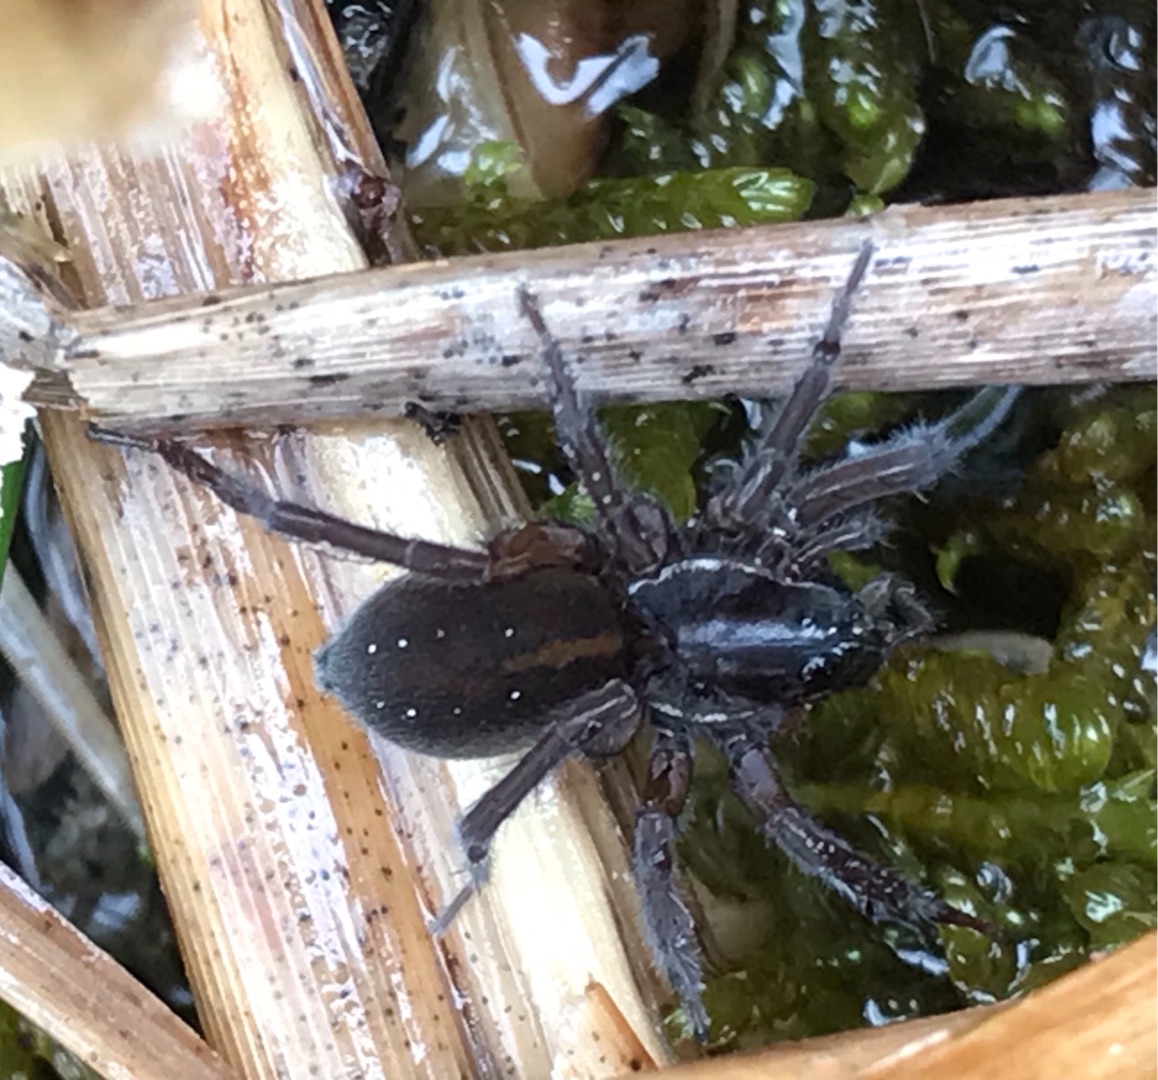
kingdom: Animalia
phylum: Arthropoda
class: Arachnida
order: Araneae
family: Lycosidae
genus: Pirata
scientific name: Pirata piscatorius
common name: Stor piratjagtedderkop
